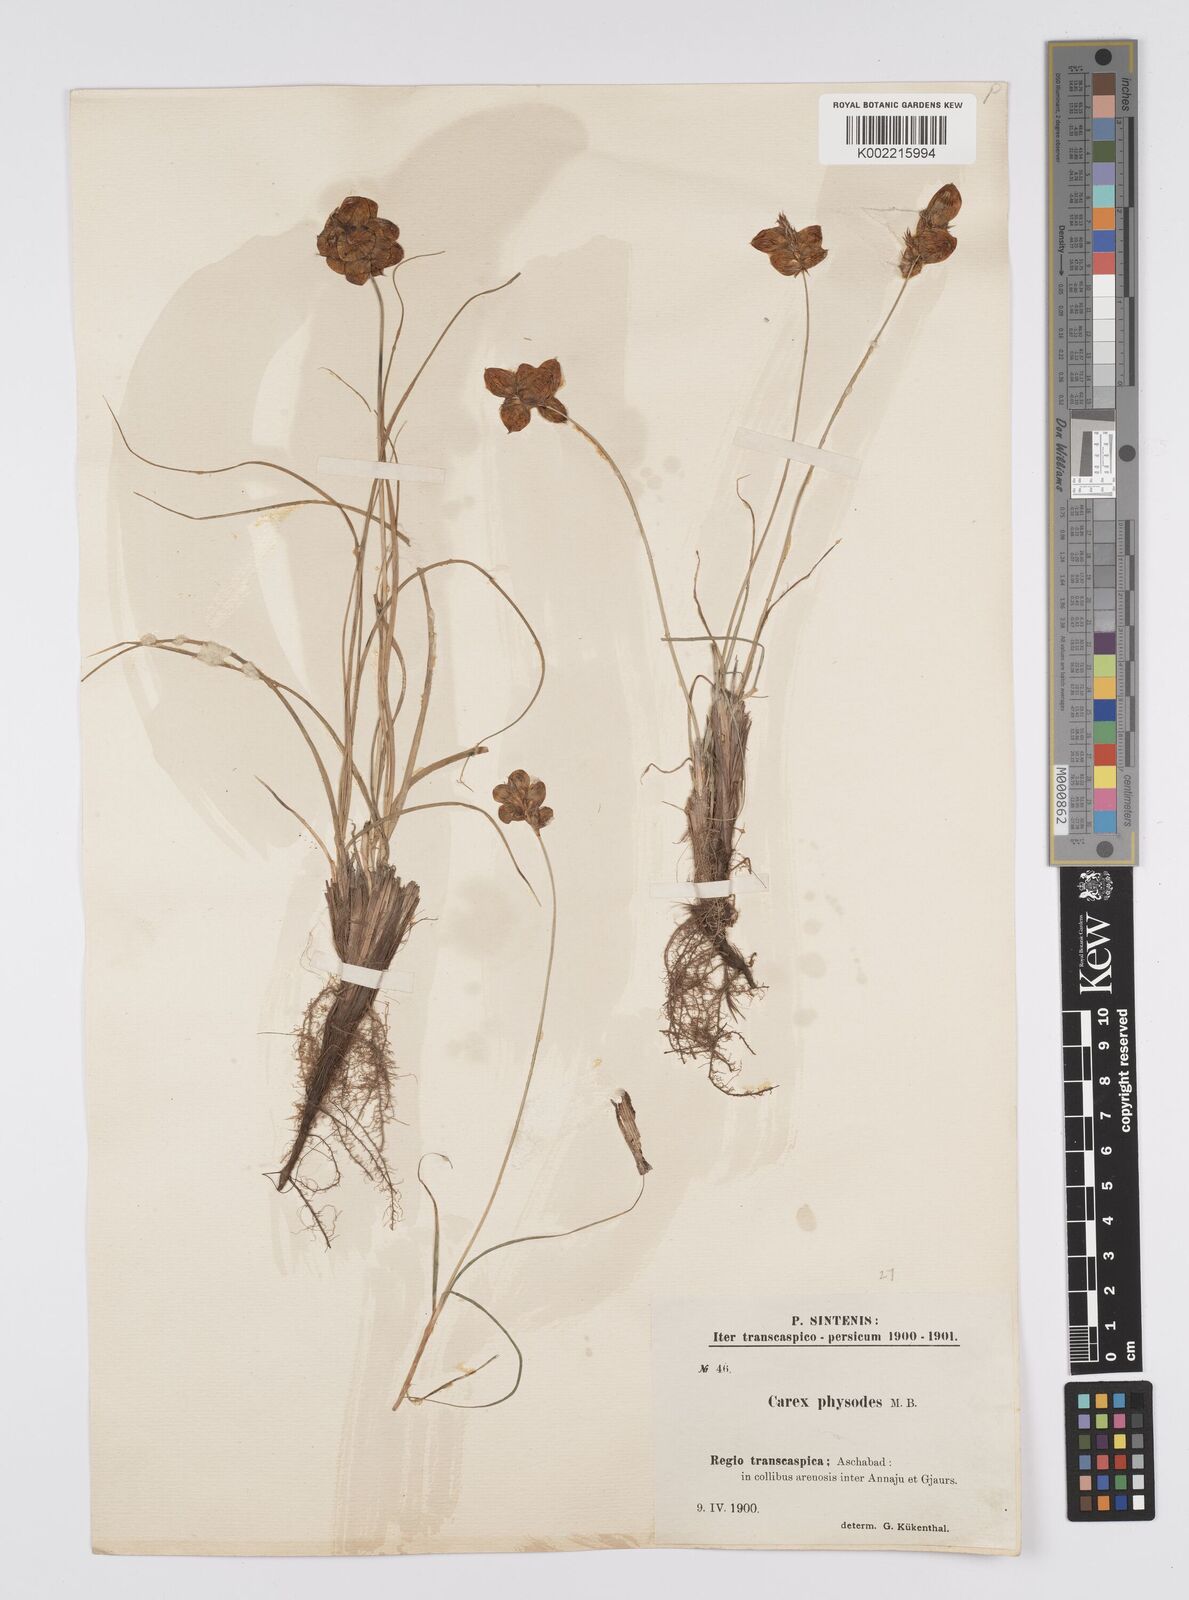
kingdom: Plantae
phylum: Tracheophyta
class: Liliopsida
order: Poales
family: Cyperaceae
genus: Carex
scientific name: Carex physodes
